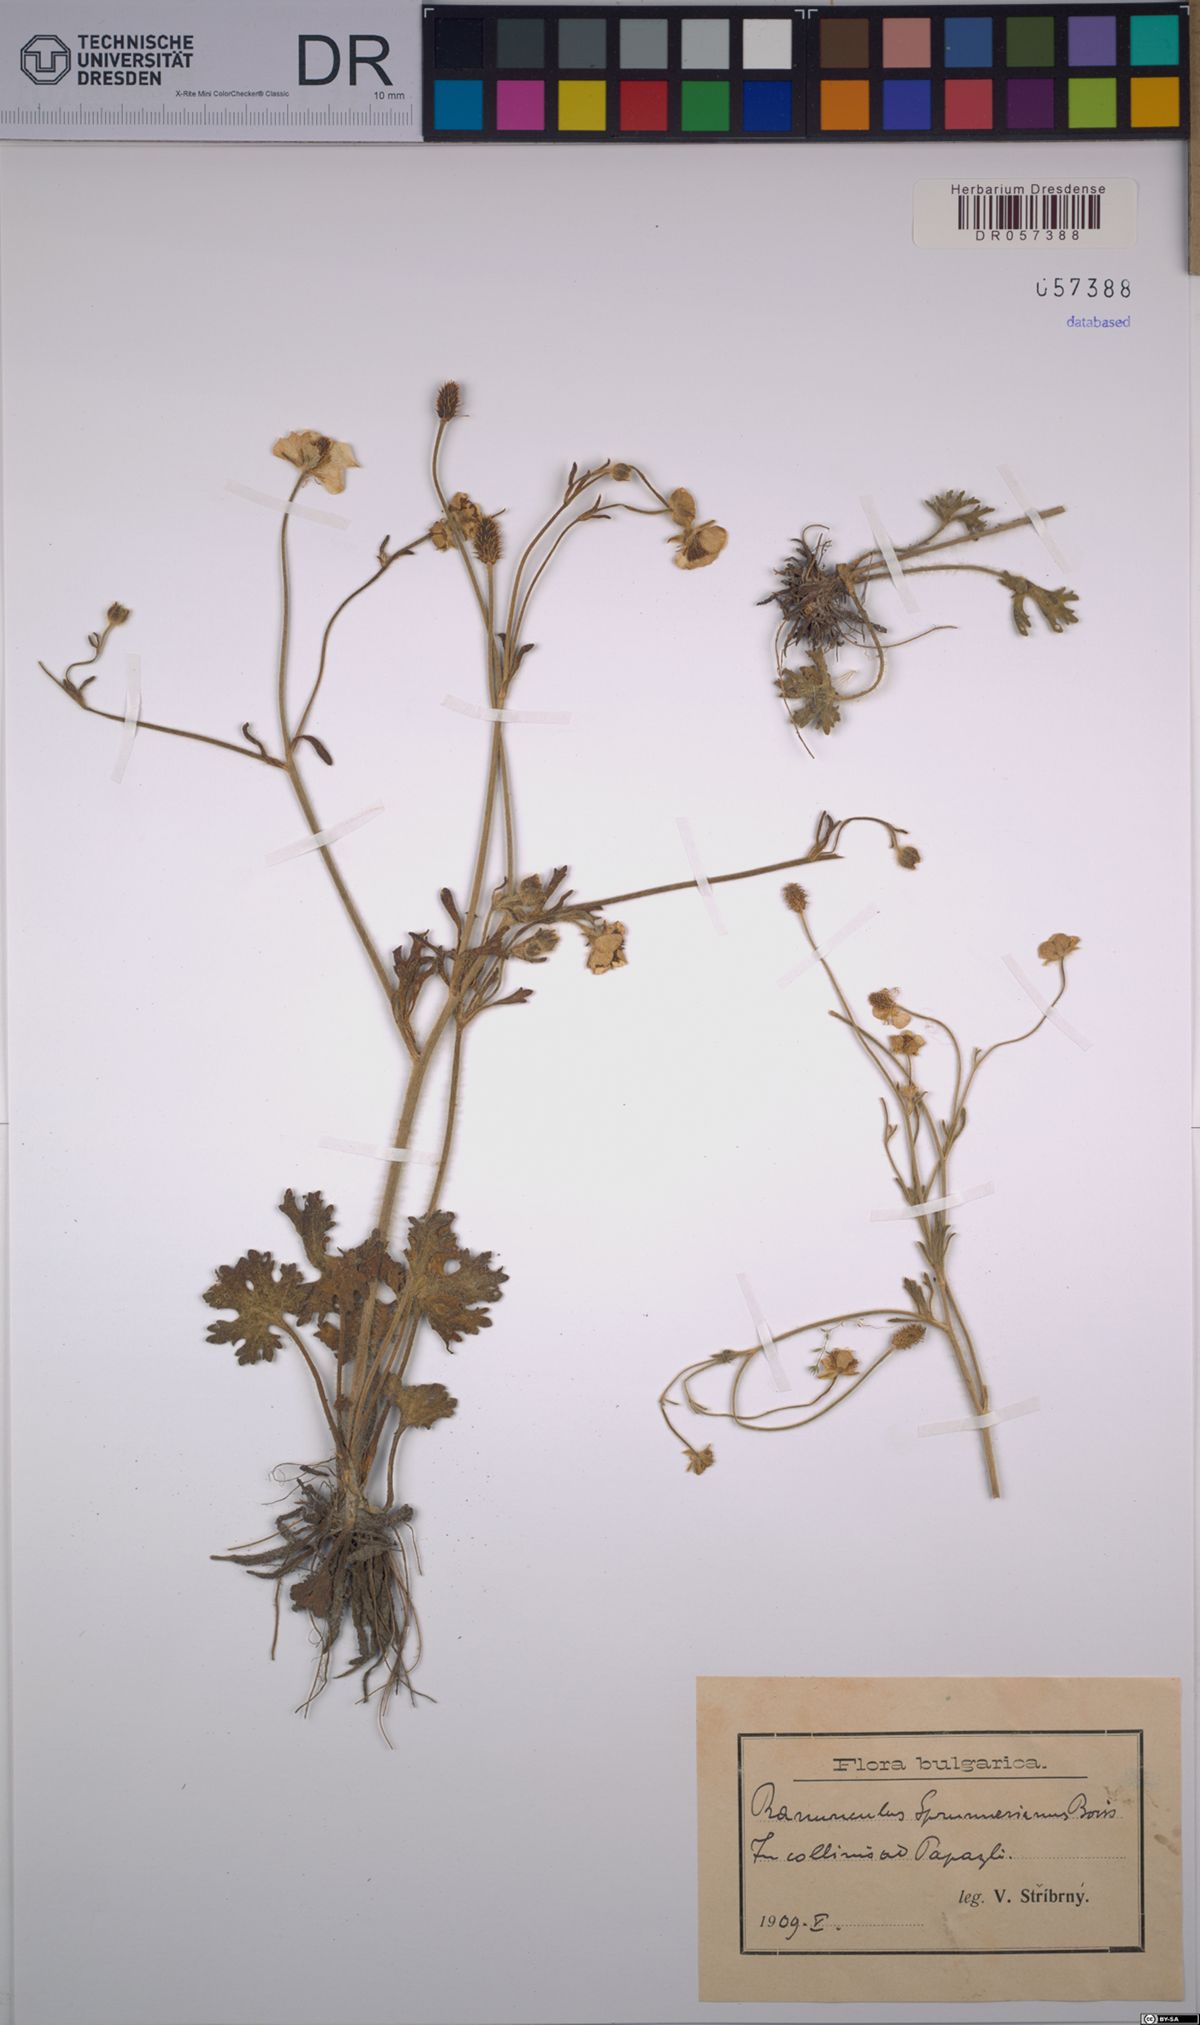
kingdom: Plantae
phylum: Tracheophyta
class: Magnoliopsida
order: Ranunculales
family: Ranunculaceae
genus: Ranunculus
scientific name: Ranunculus sprunerianus
